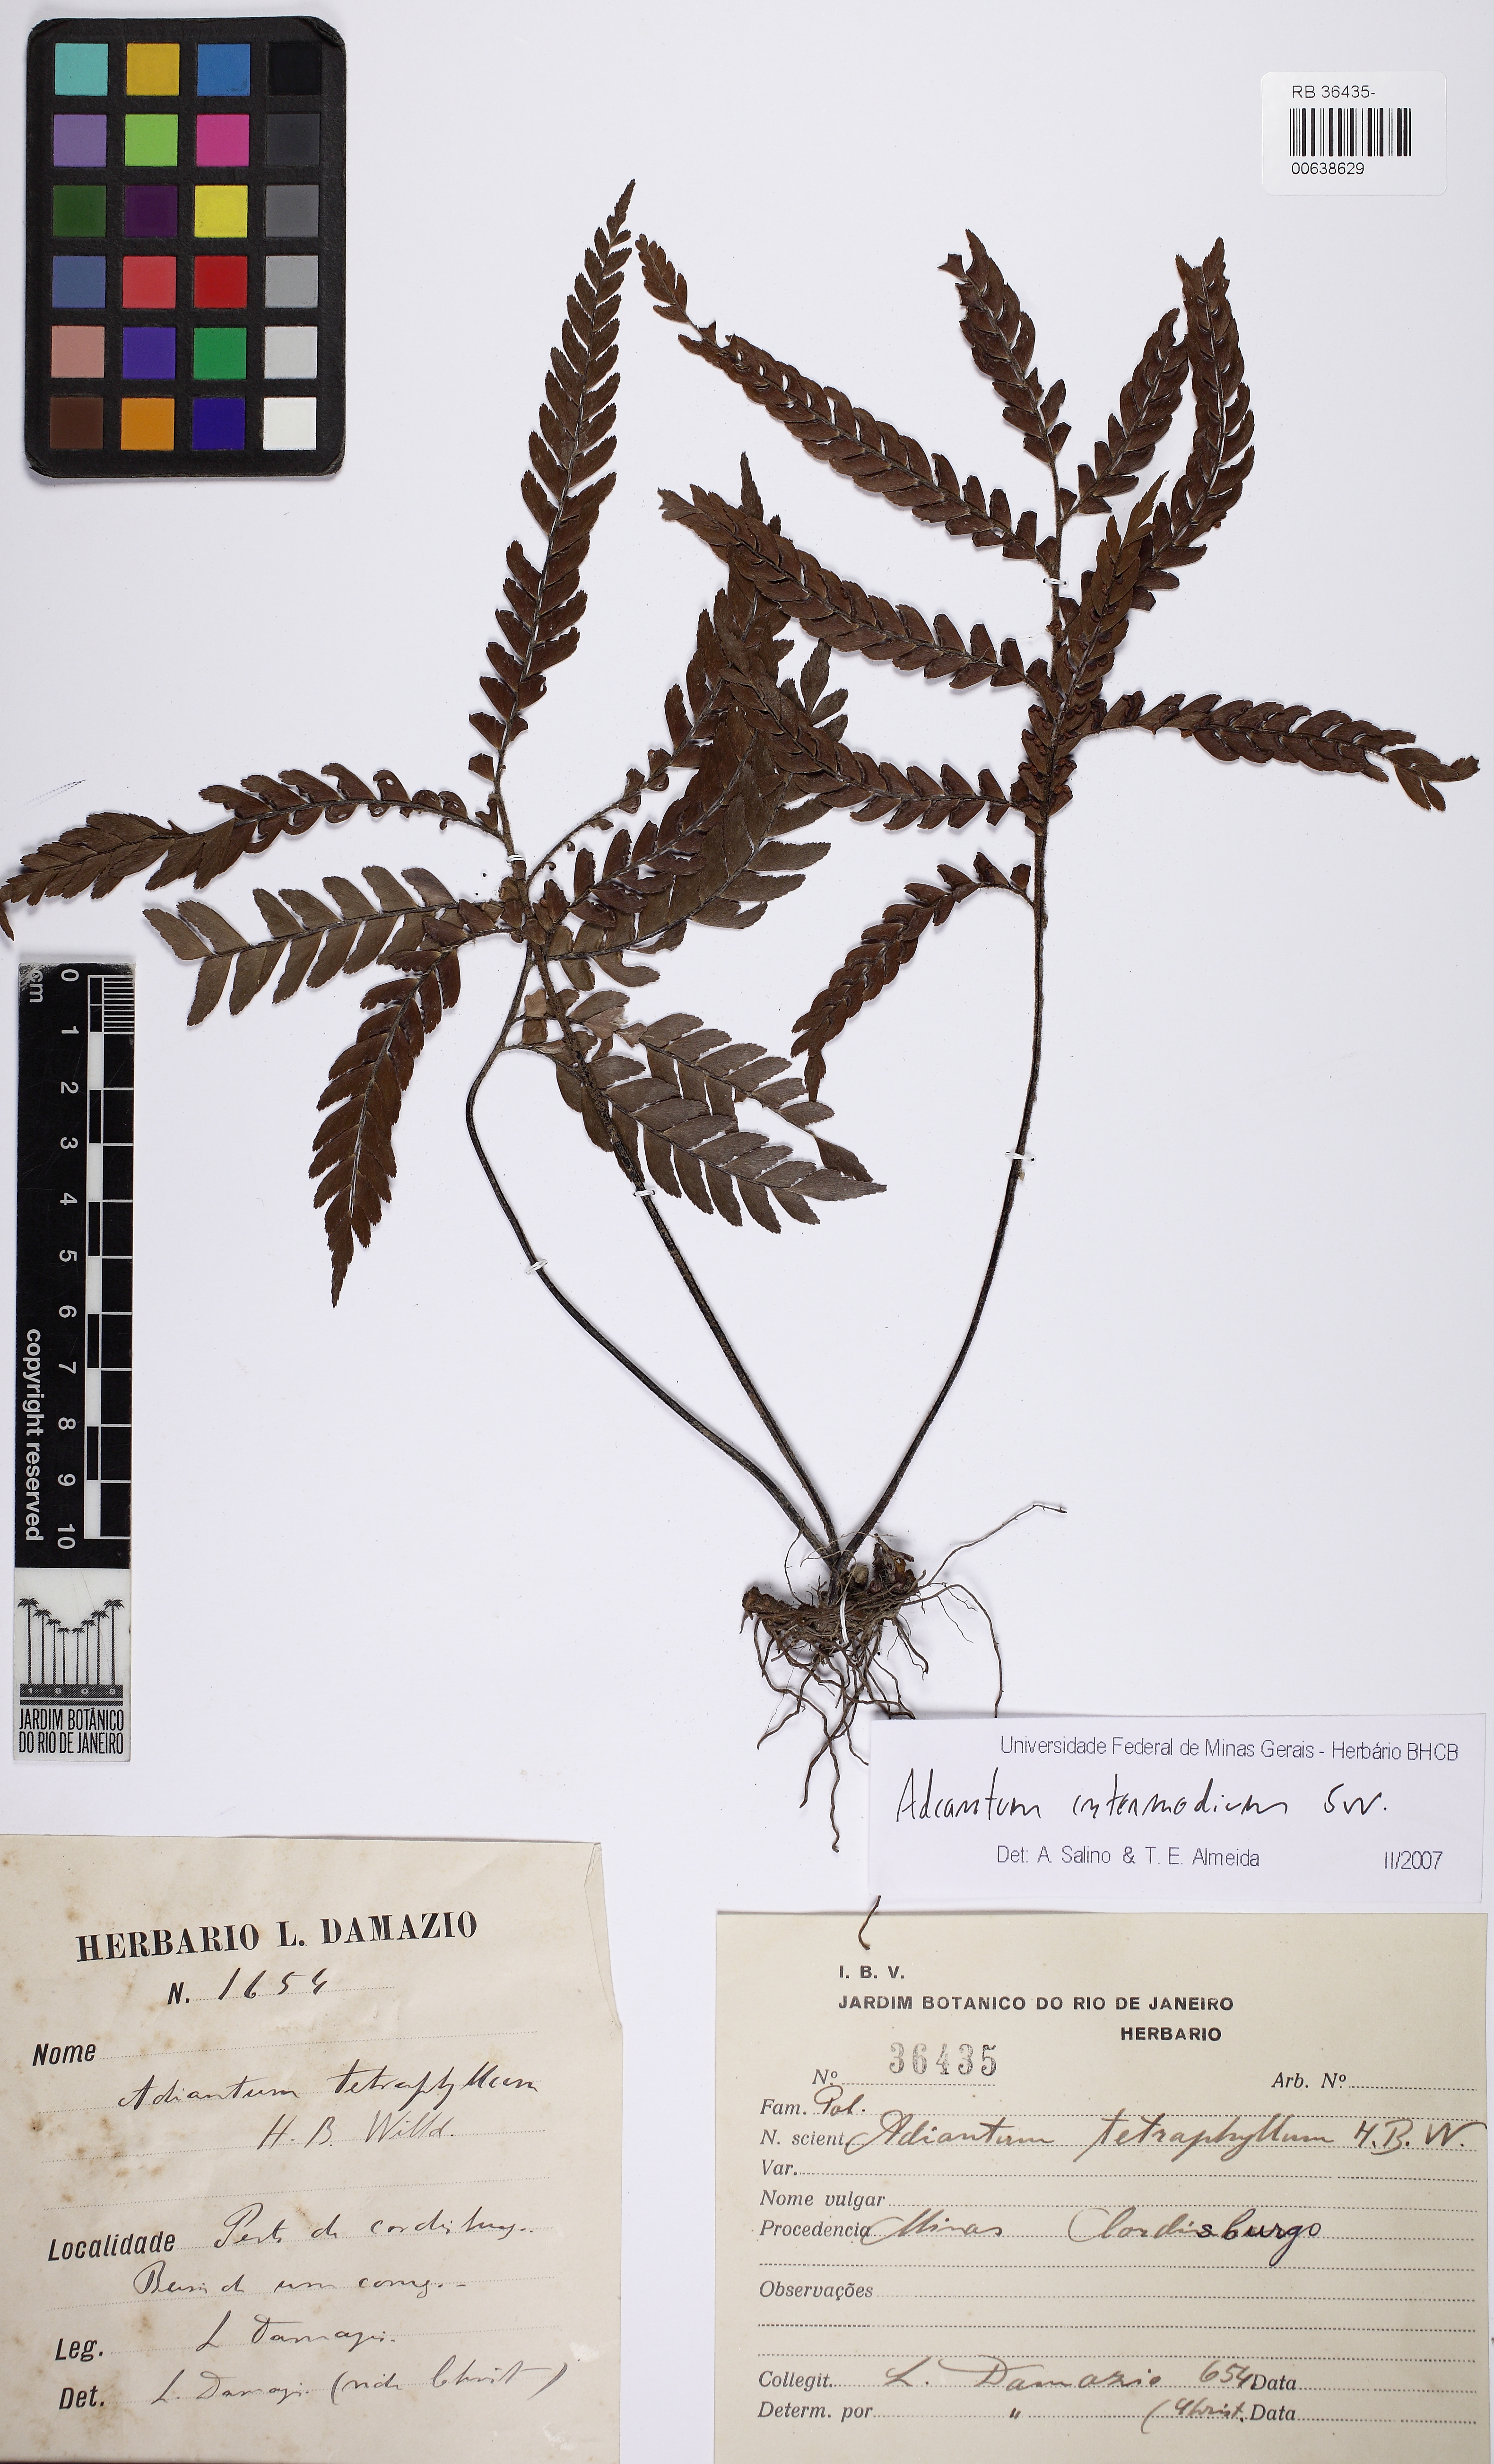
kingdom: Plantae
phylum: Tracheophyta
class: Polypodiopsida
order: Polypodiales
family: Pteridaceae
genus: Adiantum
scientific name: Adiantum intermedium
